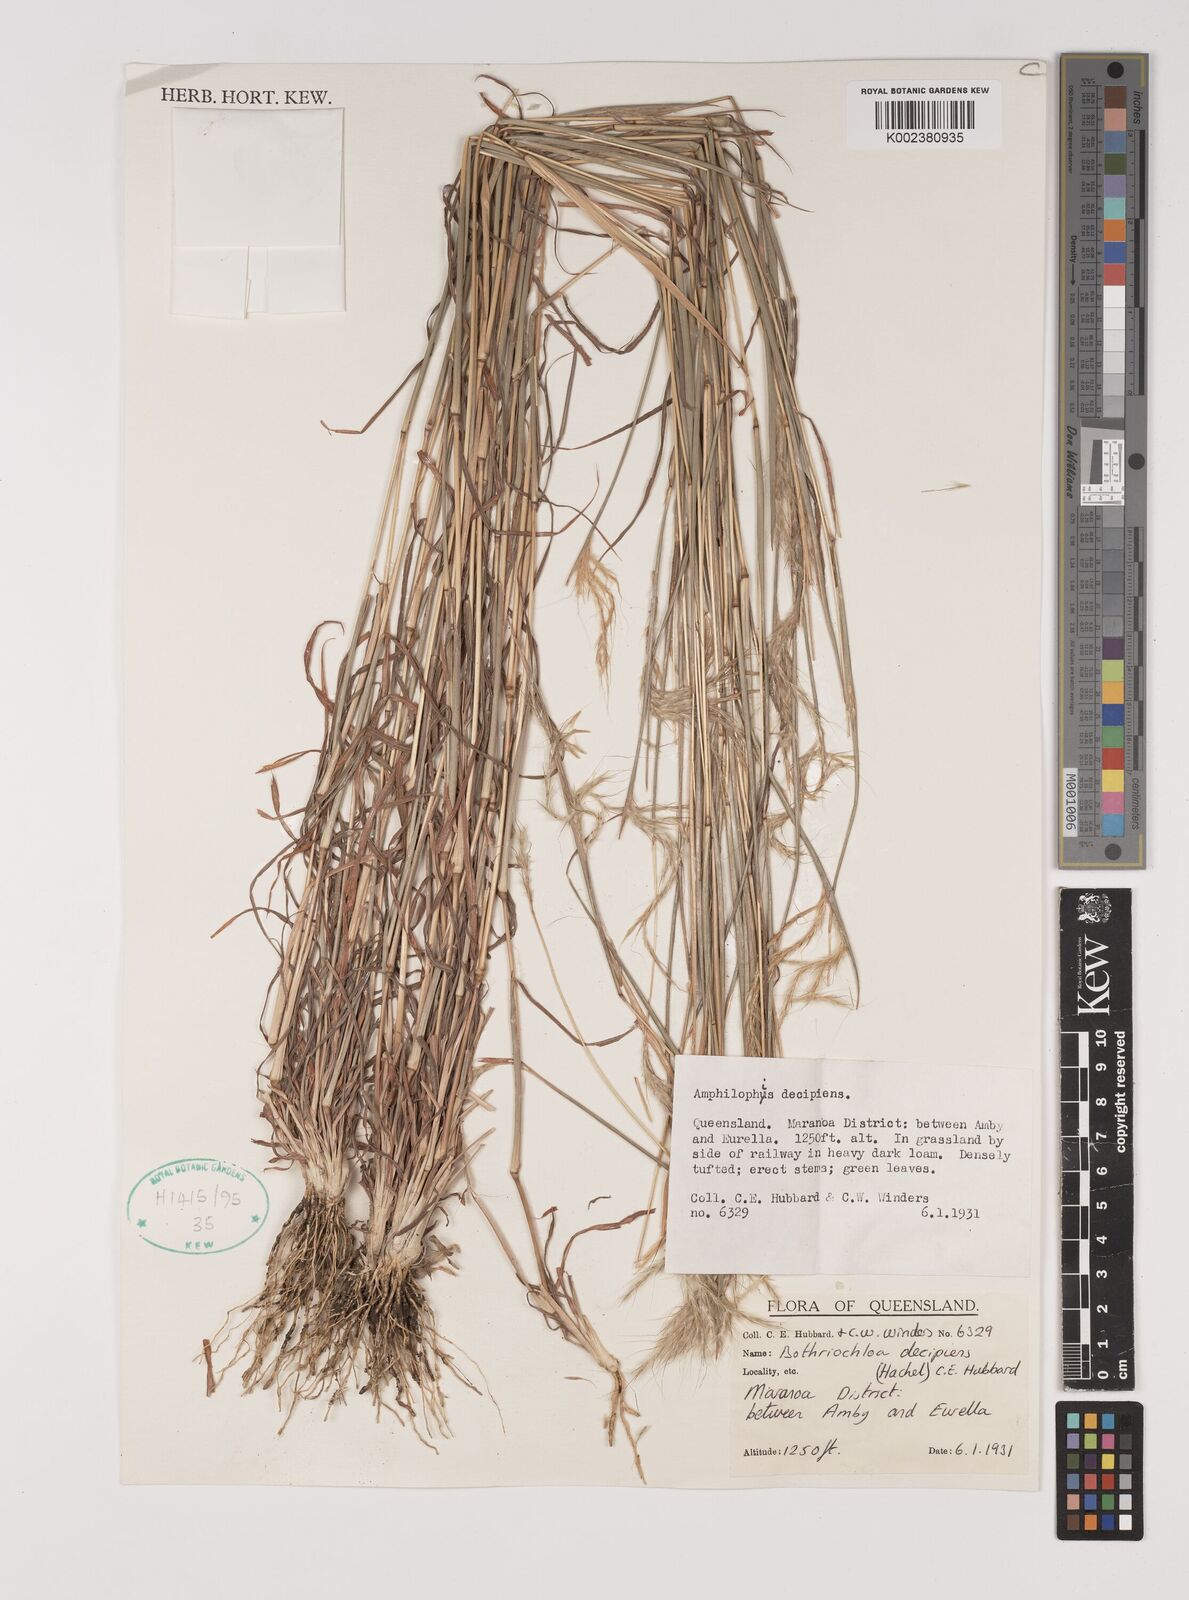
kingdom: Plantae
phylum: Tracheophyta
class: Liliopsida
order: Poales
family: Poaceae
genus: Bothriochloa
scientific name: Bothriochloa decipiens
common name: Pitted-bluegrass
